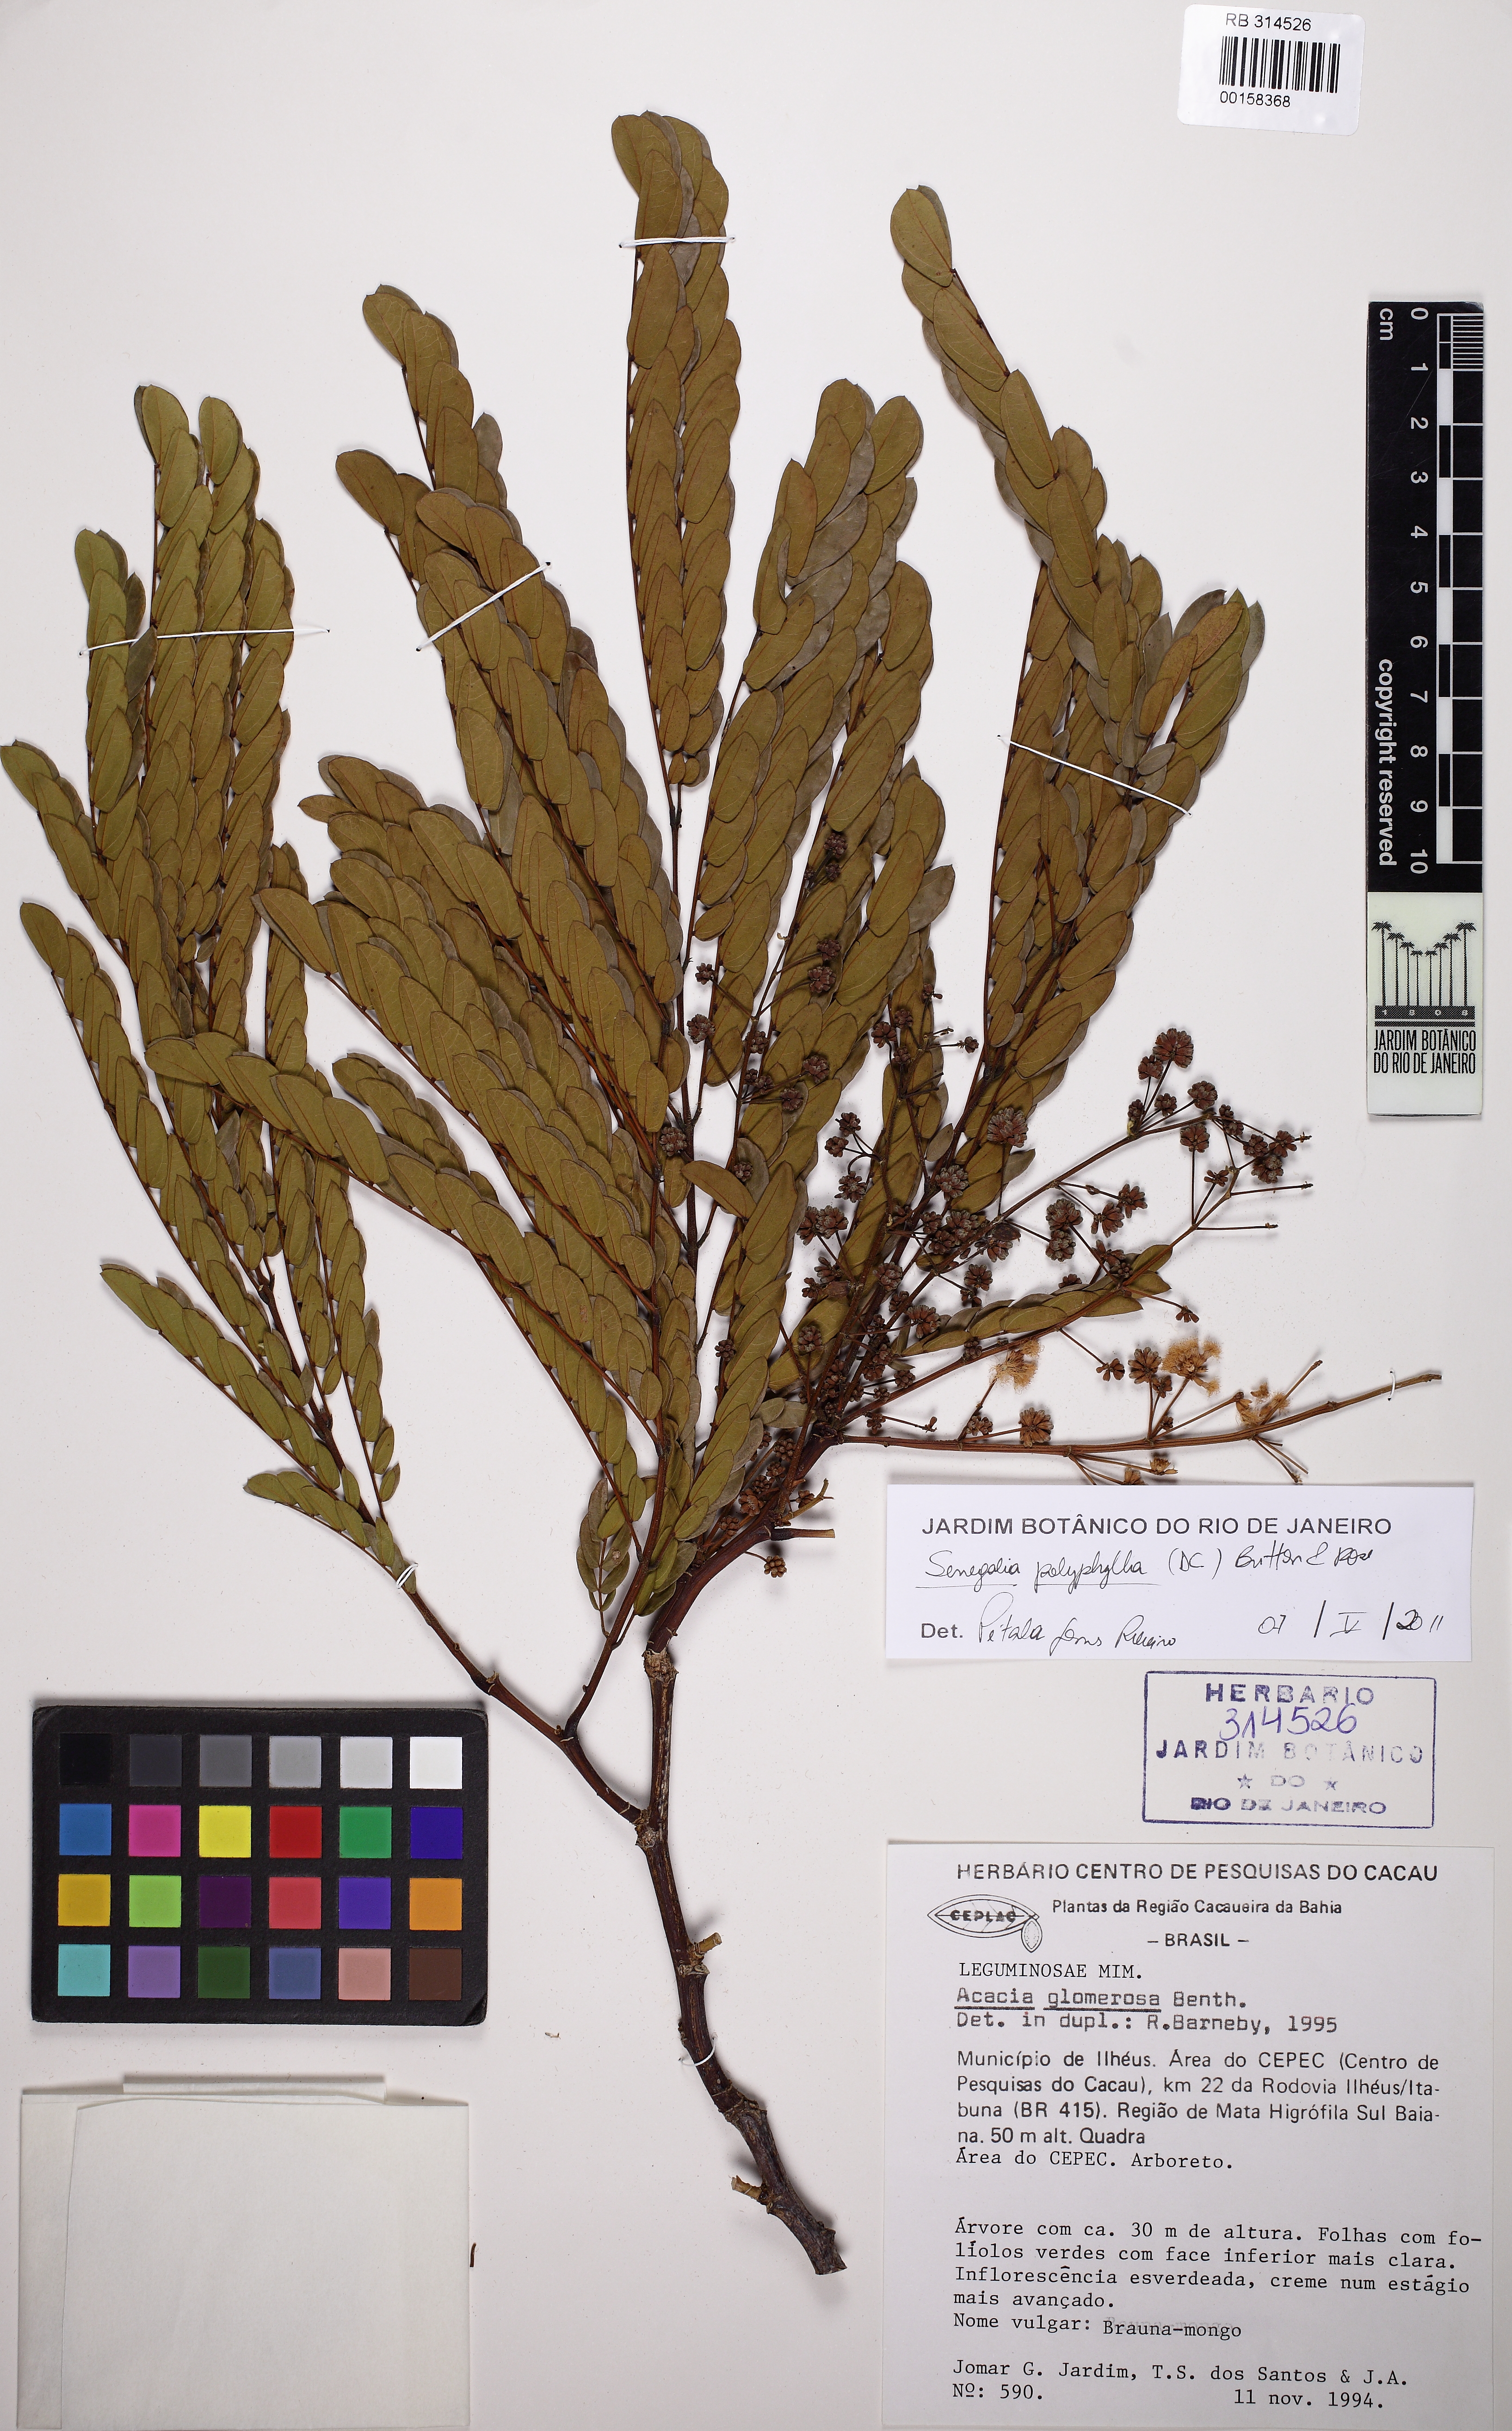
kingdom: Plantae
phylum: Tracheophyta
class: Magnoliopsida
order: Fabales
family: Fabaceae
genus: Senegalia
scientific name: Senegalia polyphylla
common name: White-tamarind
